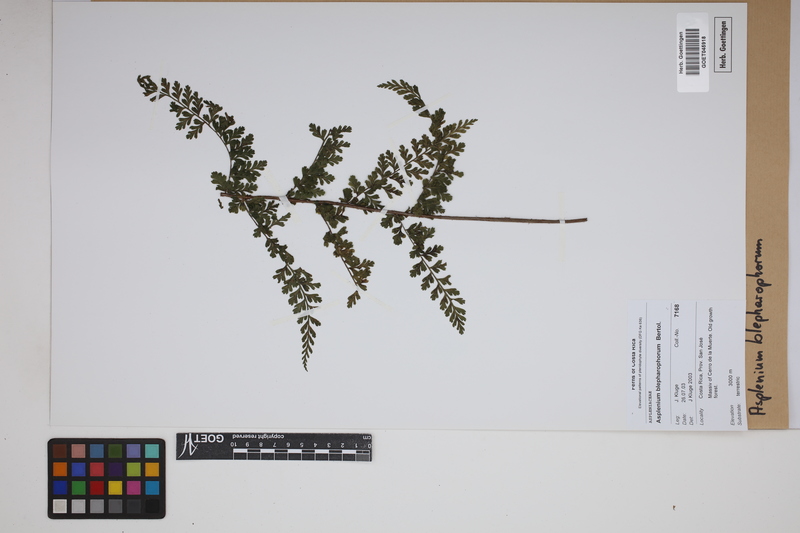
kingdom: Plantae
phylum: Tracheophyta
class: Polypodiopsida
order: Polypodiales
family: Aspleniaceae
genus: Asplenium
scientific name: Asplenium blepharophorum
